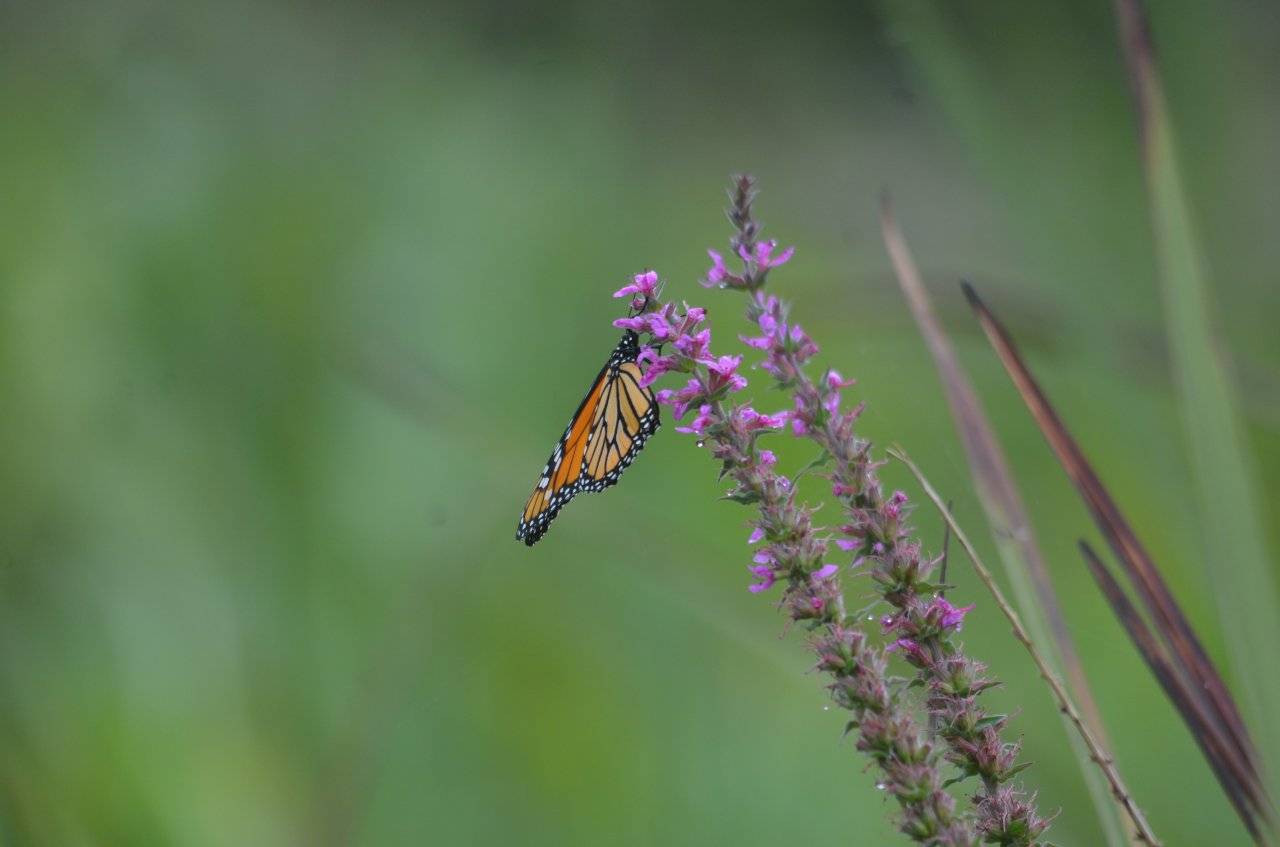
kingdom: Animalia
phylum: Arthropoda
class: Insecta
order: Lepidoptera
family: Nymphalidae
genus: Danaus
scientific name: Danaus plexippus
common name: Monarch
